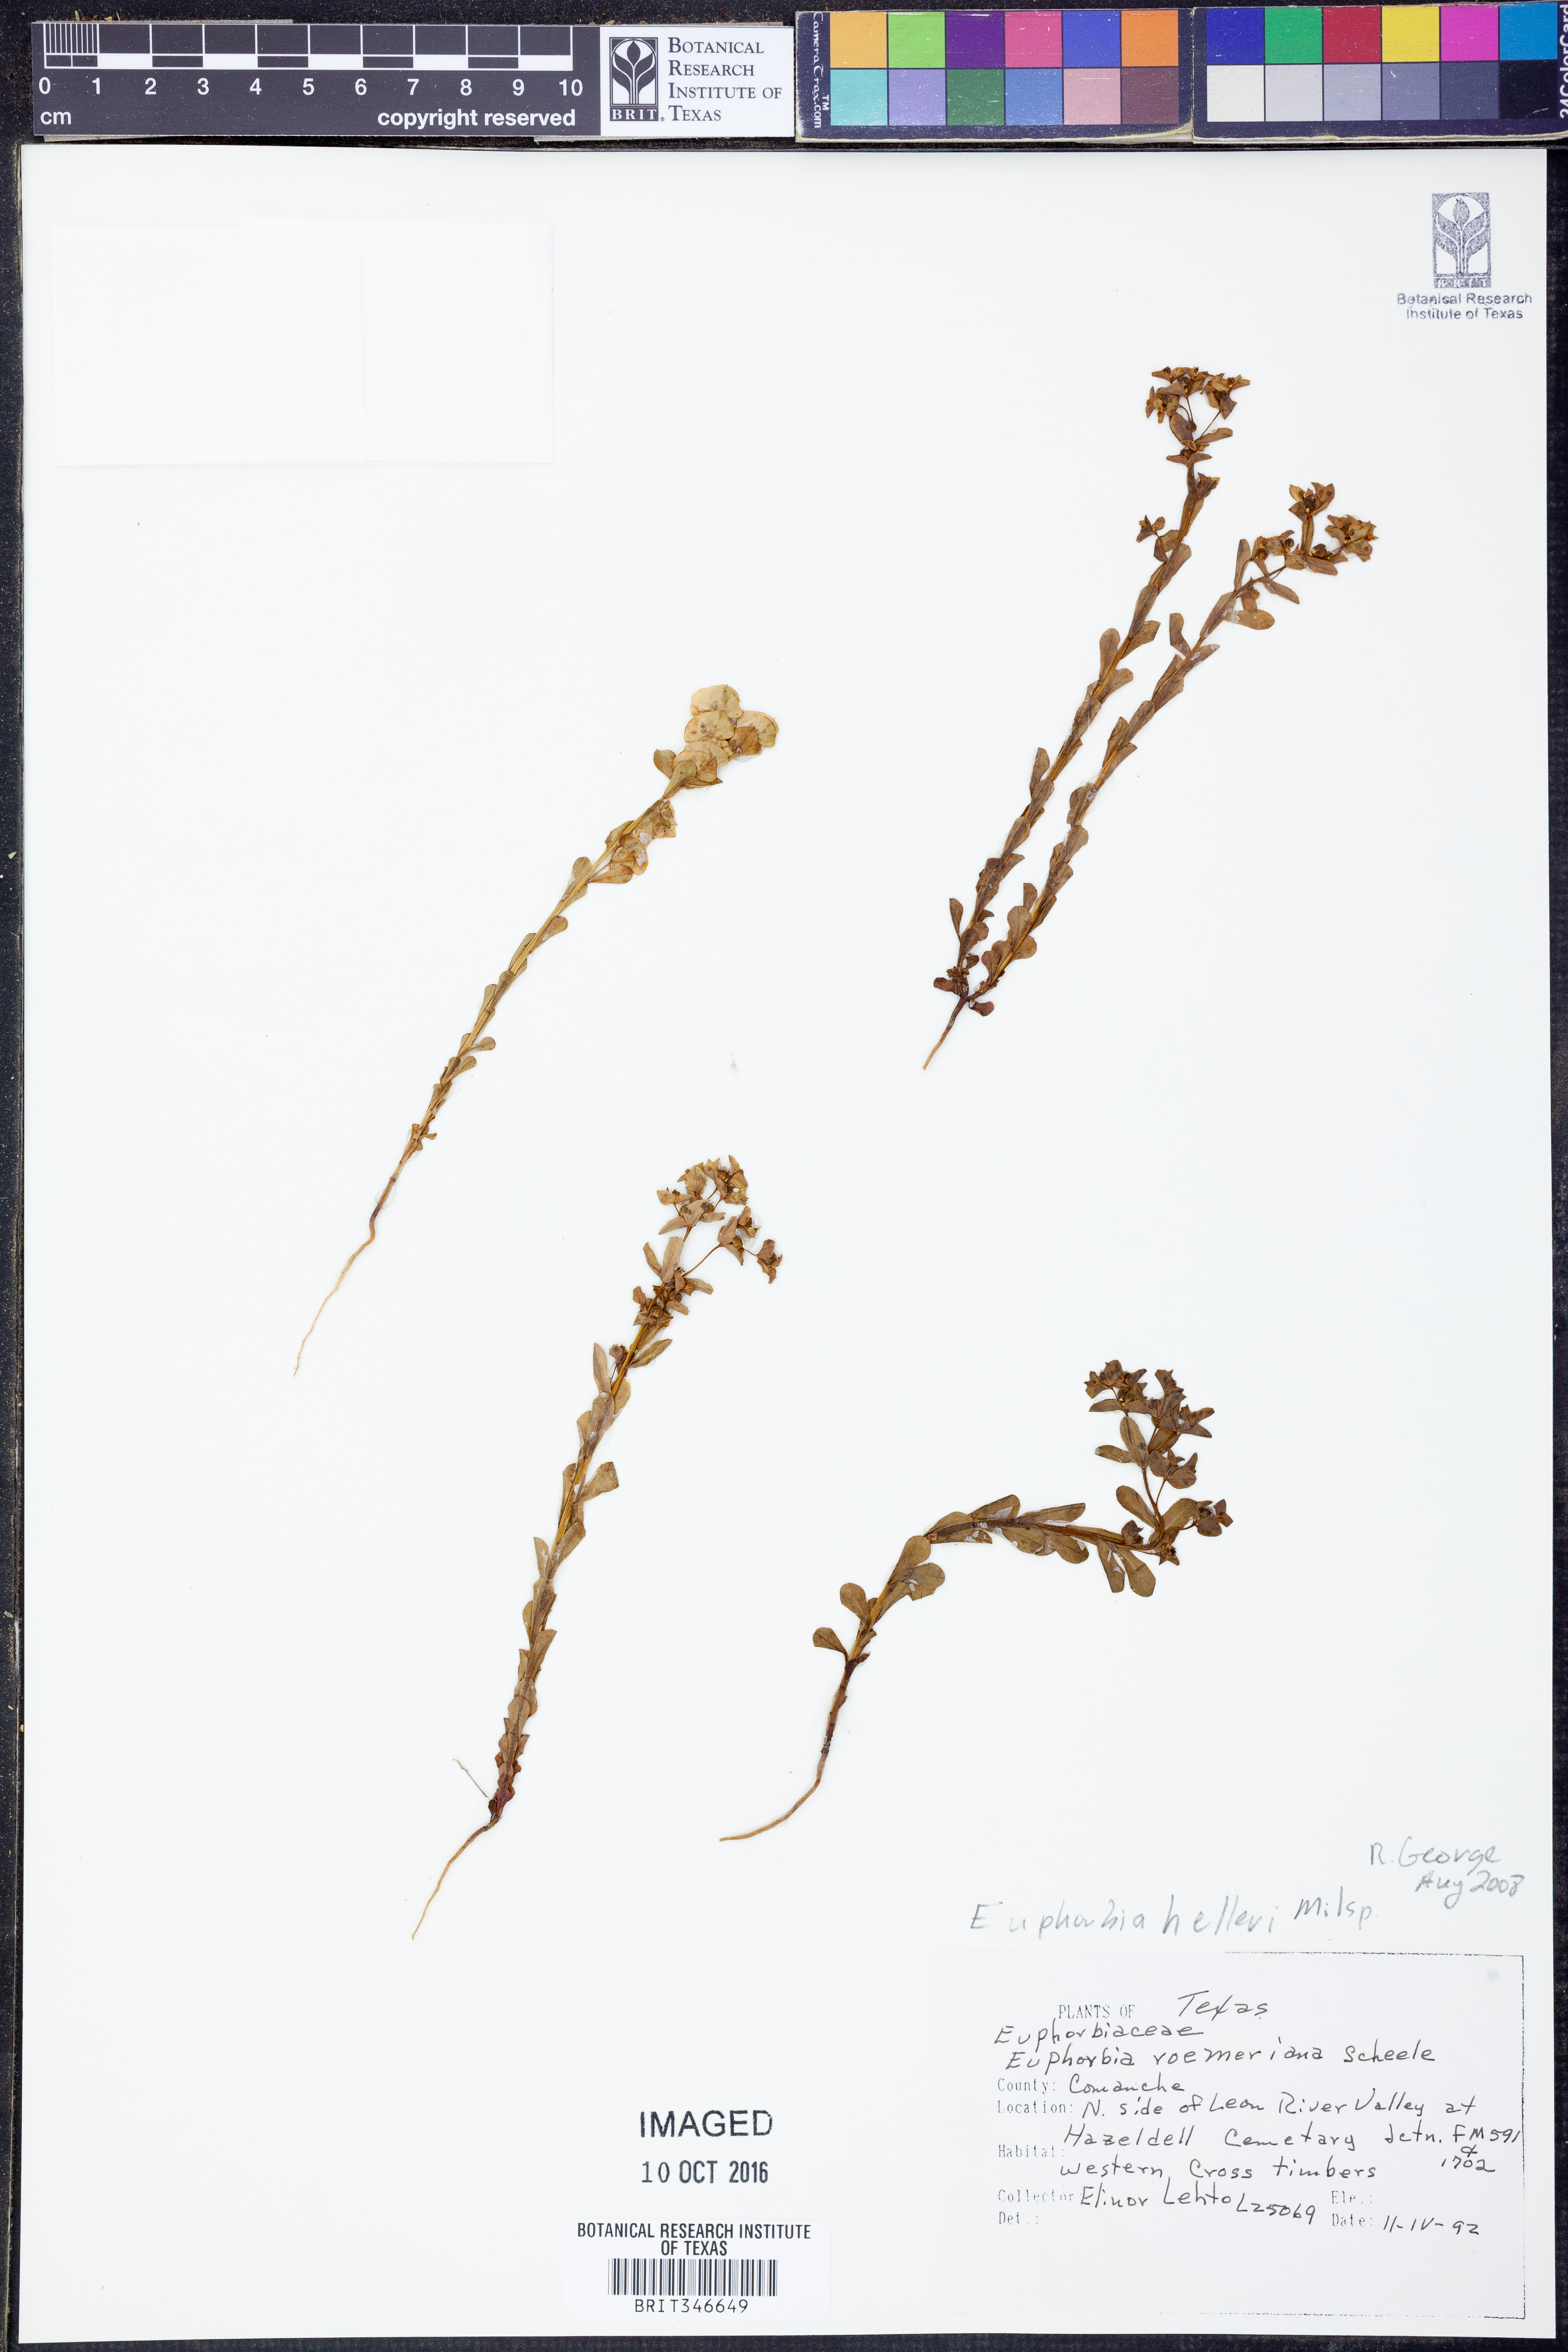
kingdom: Plantae
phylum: Tracheophyta
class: Magnoliopsida
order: Malpighiales
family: Euphorbiaceae
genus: Euphorbia
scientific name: Euphorbia helleri
